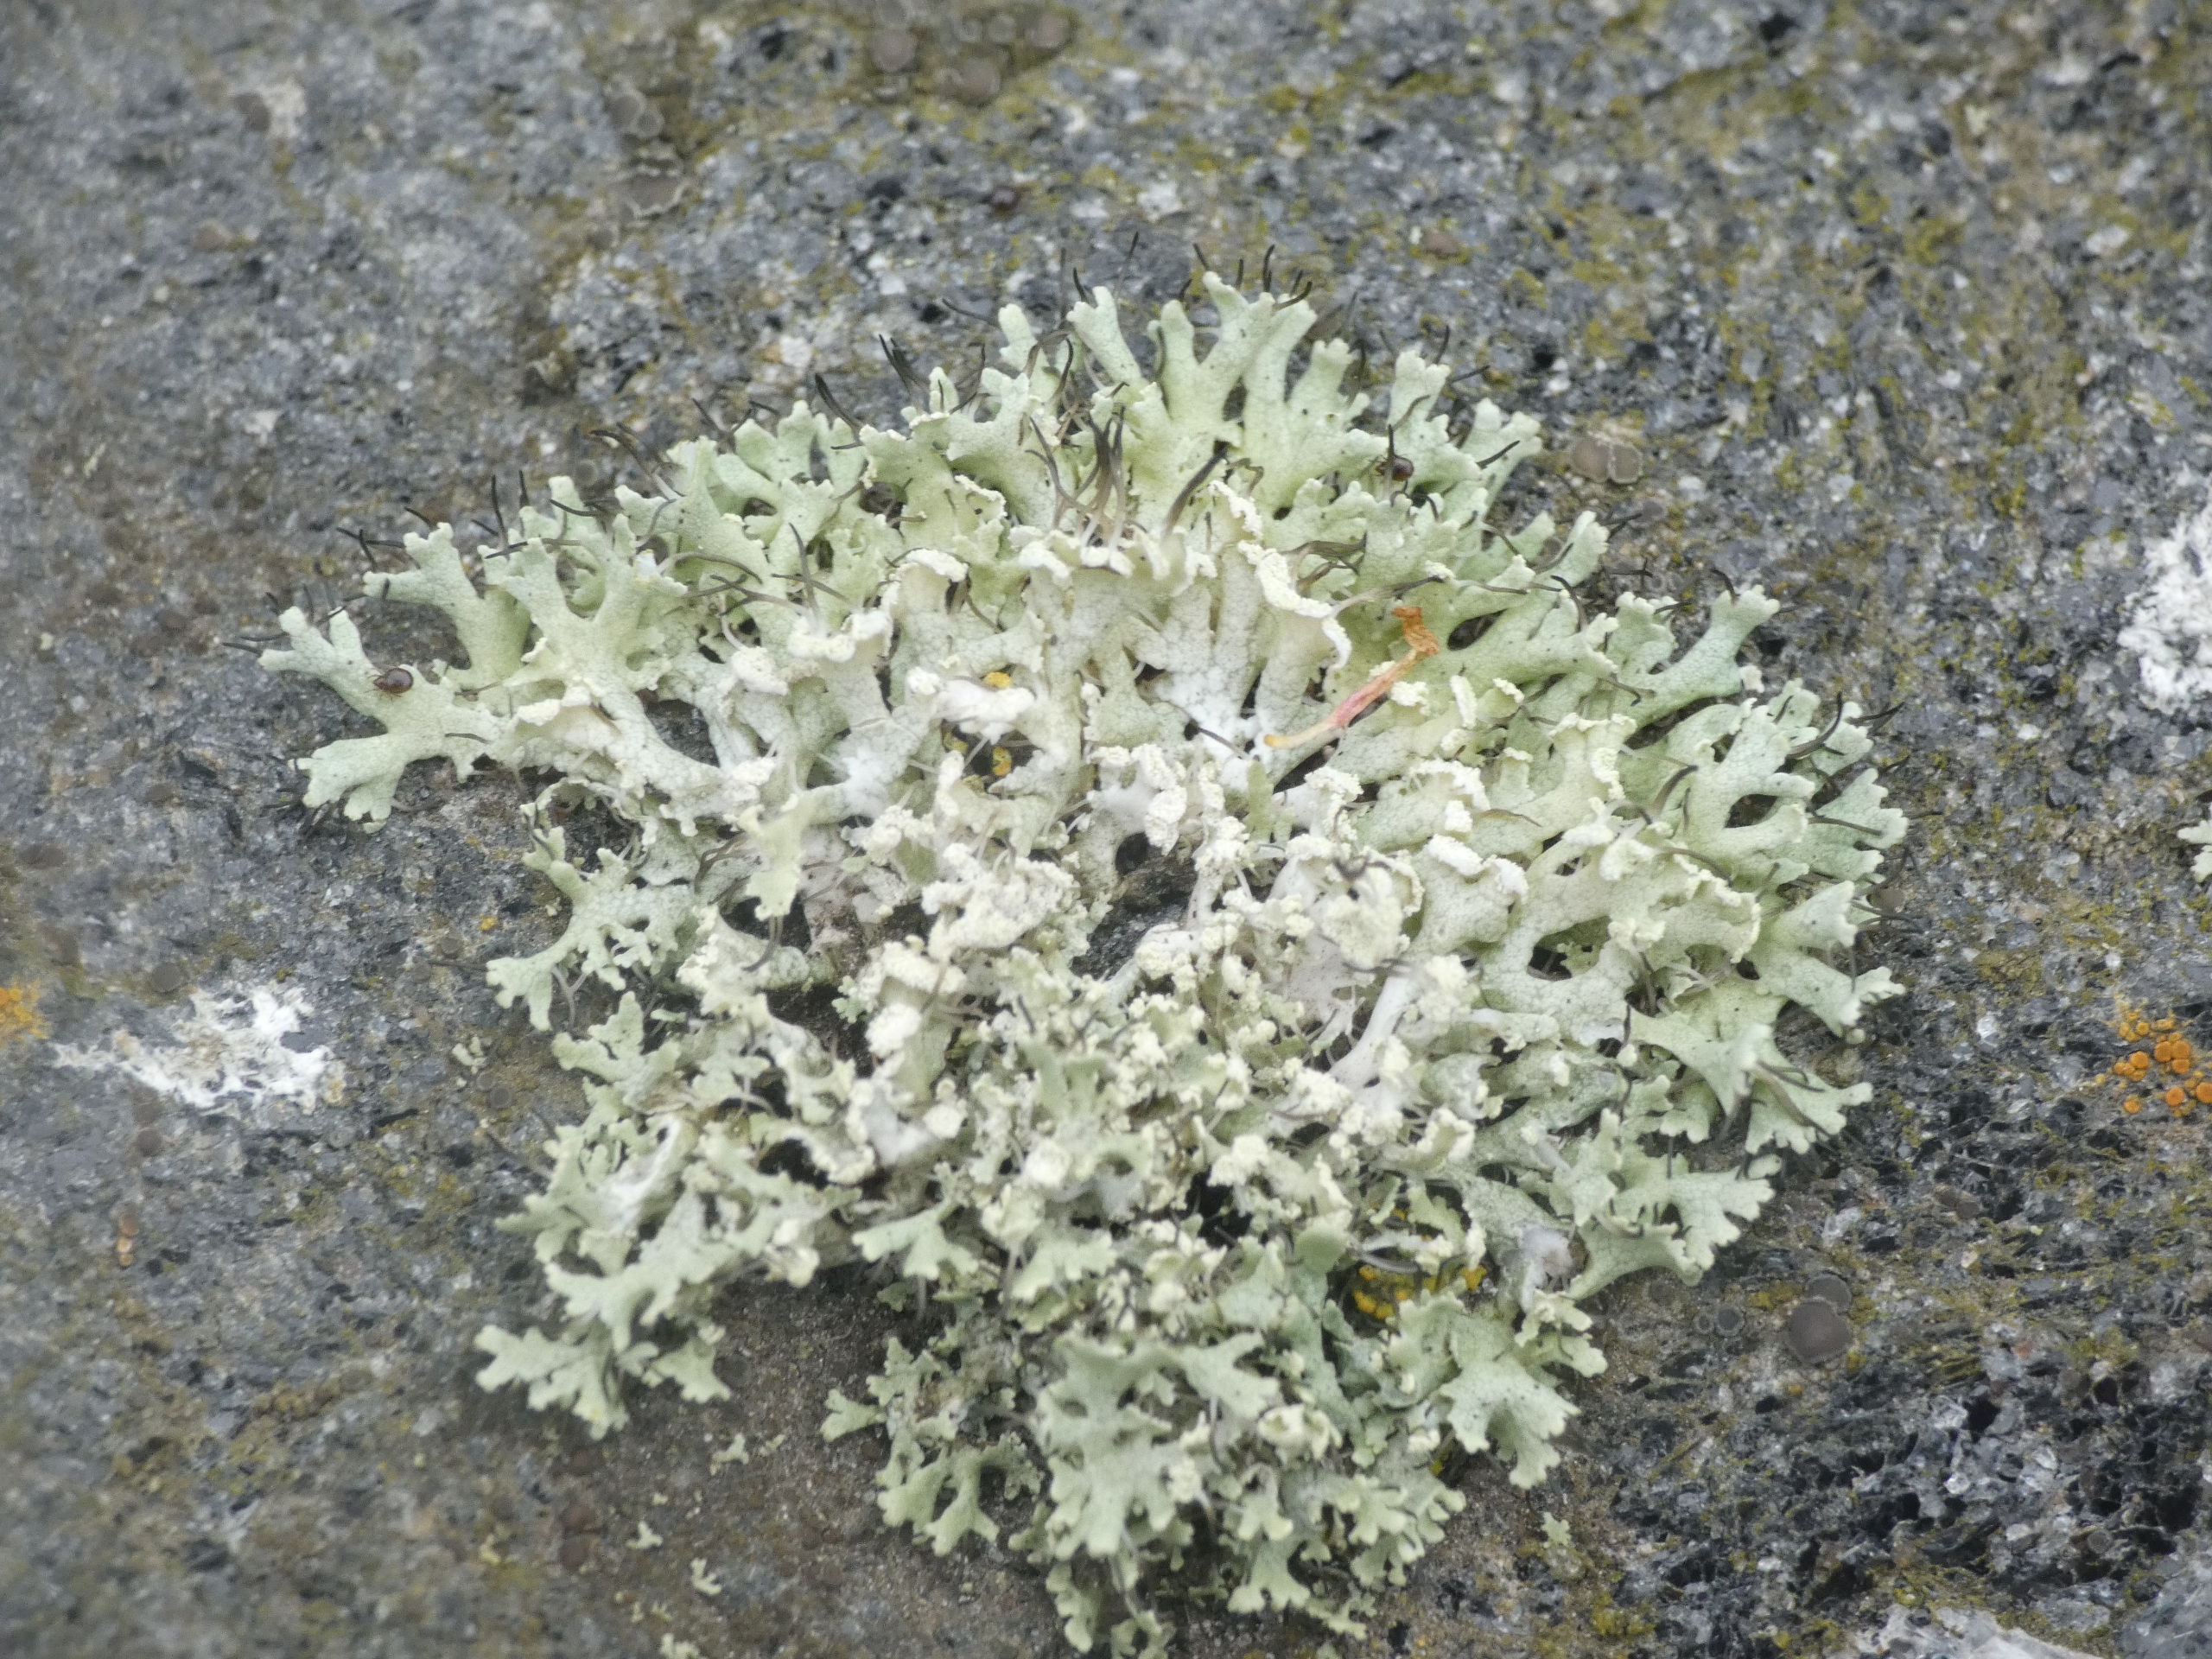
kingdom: Fungi
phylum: Ascomycota
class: Lecanoromycetes
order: Caliciales
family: Physciaceae
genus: Physcia
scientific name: Physcia tenella
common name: Spæd rosetlav
